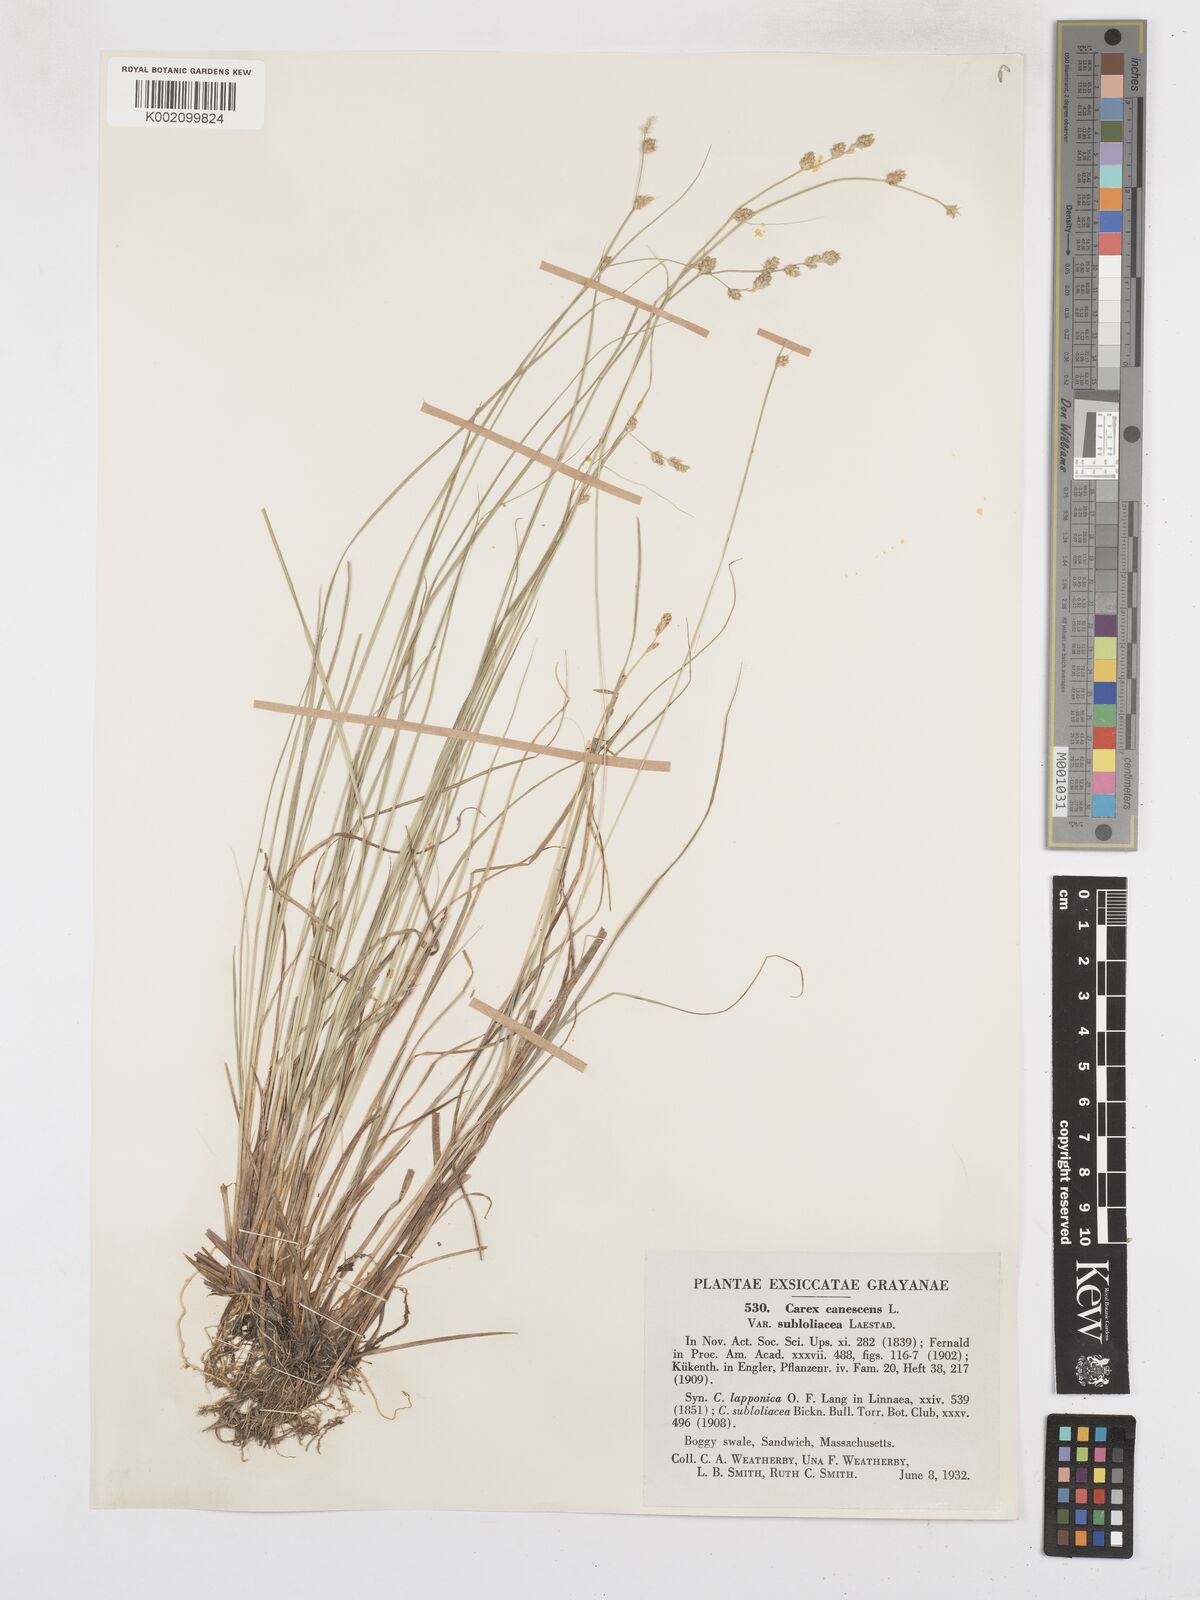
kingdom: Plantae
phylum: Tracheophyta
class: Liliopsida
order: Poales
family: Cyperaceae
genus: Carex
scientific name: Carex curta
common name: White sedge
